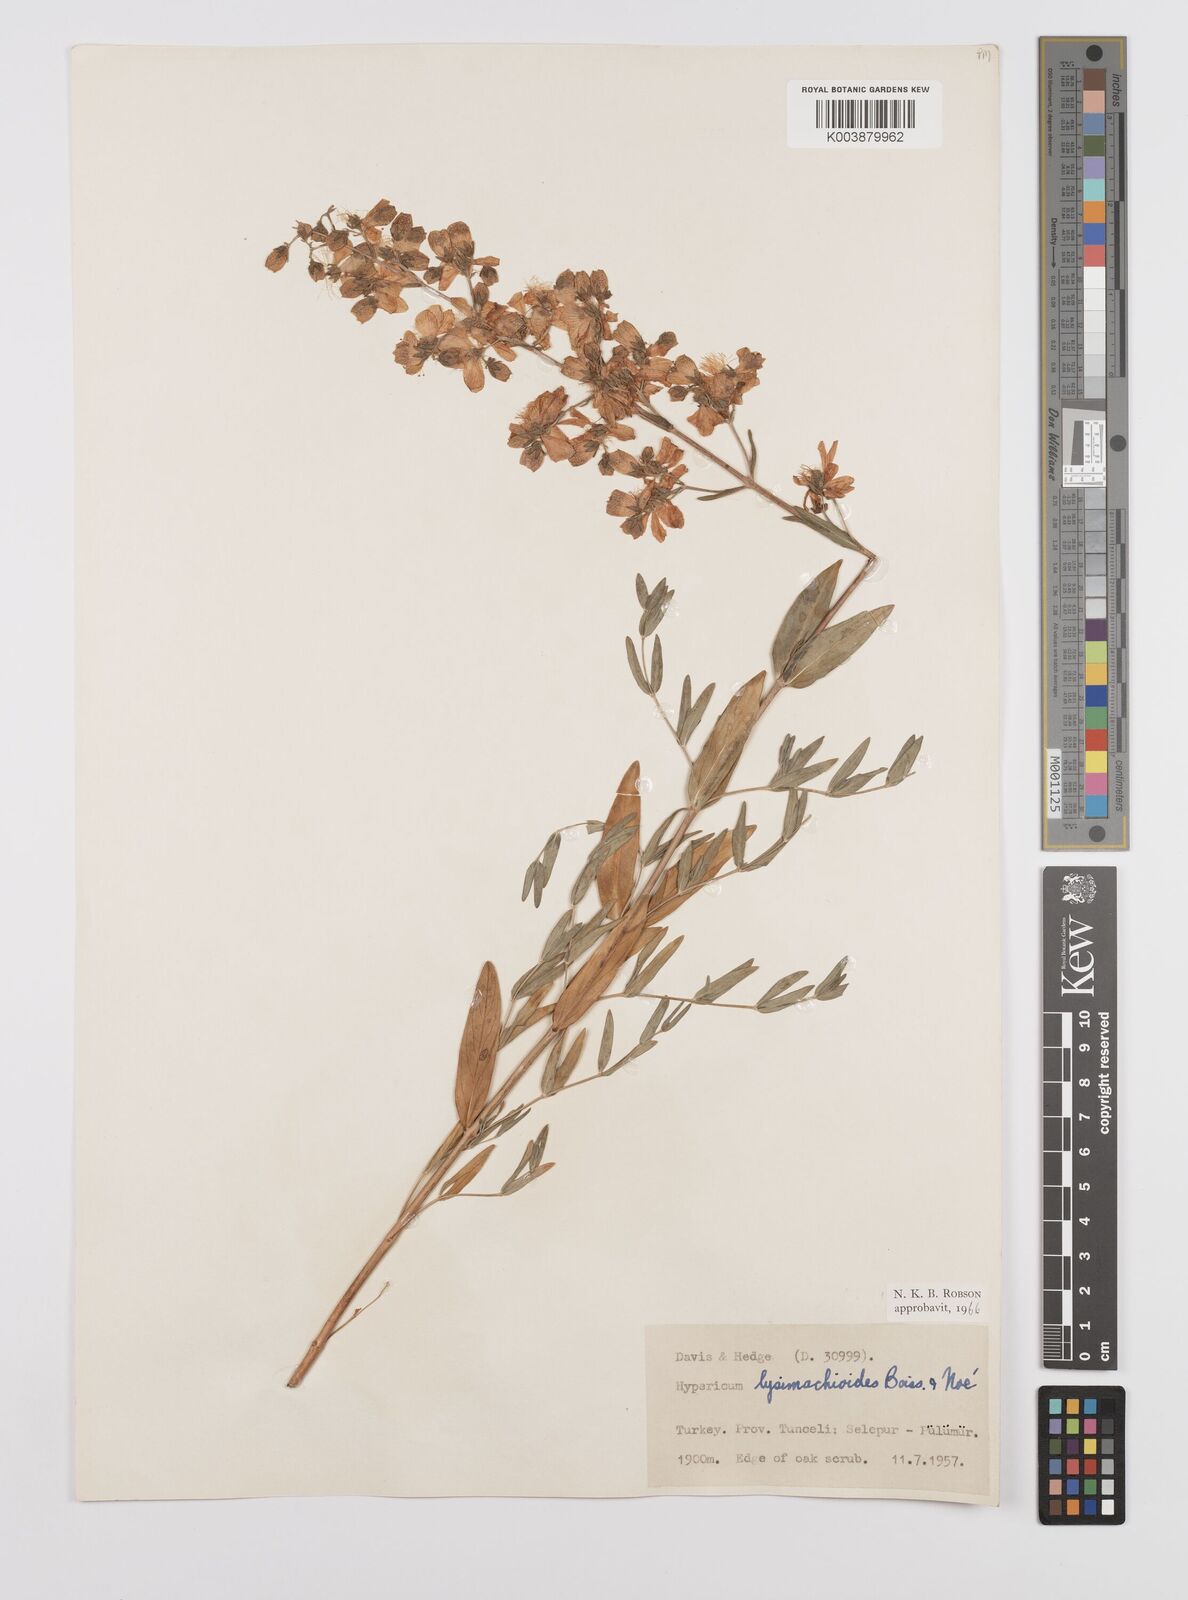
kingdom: Plantae
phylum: Tracheophyta
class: Magnoliopsida
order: Malpighiales
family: Hypericaceae
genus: Hypericum
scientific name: Hypericum lysimachioides
